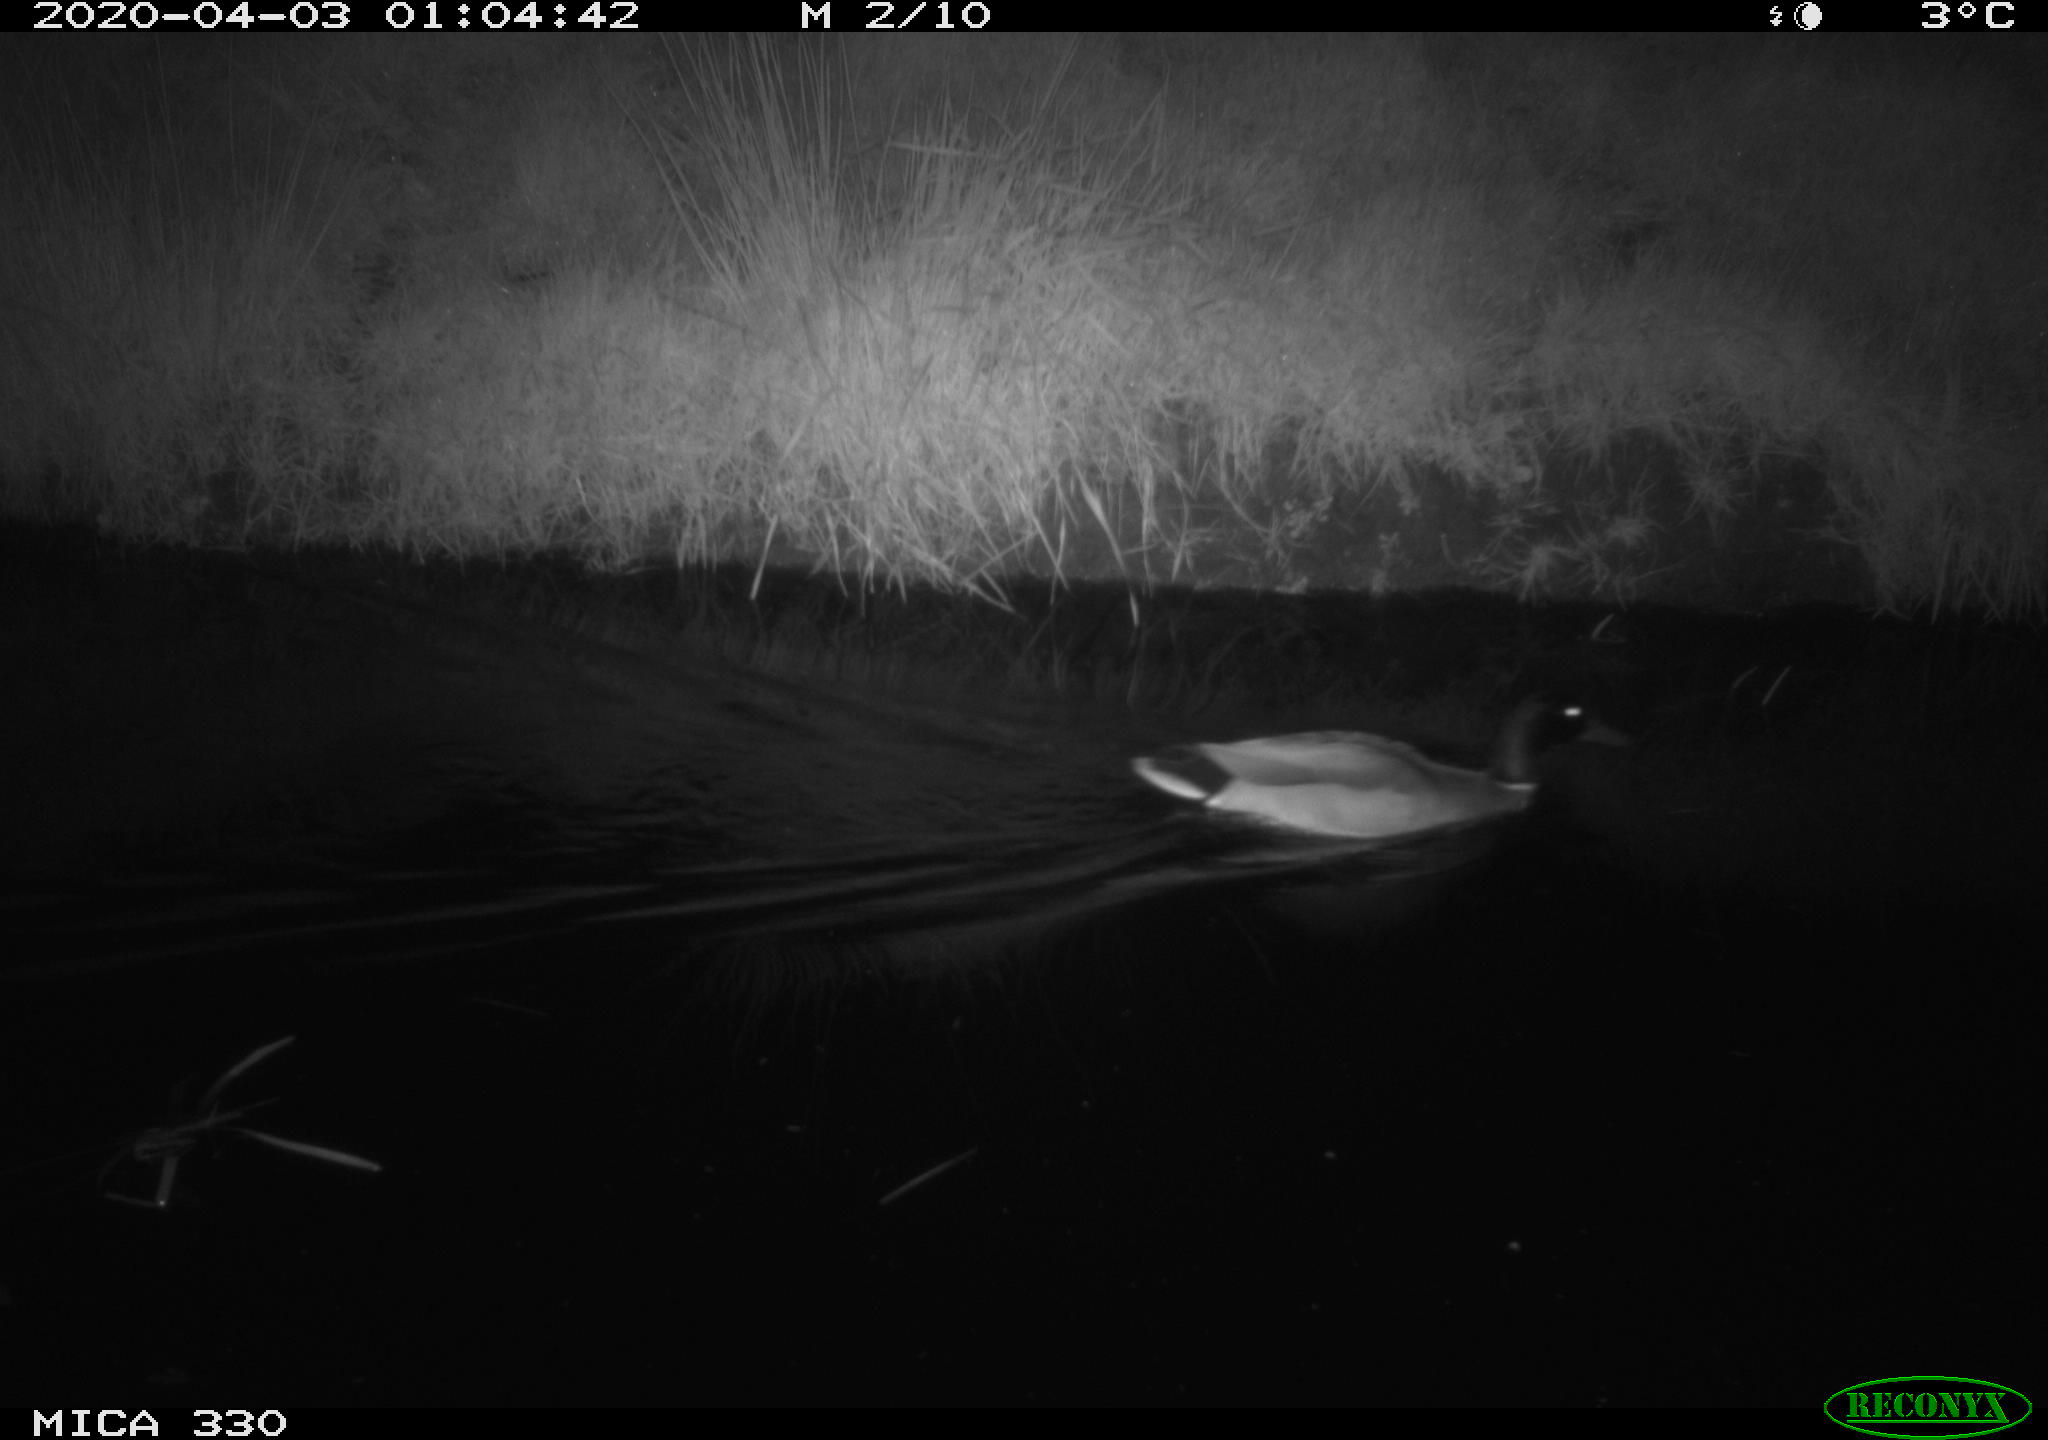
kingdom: Animalia
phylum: Chordata
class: Aves
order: Gruiformes
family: Rallidae
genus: Fulica
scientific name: Fulica atra
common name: Eurasian coot
